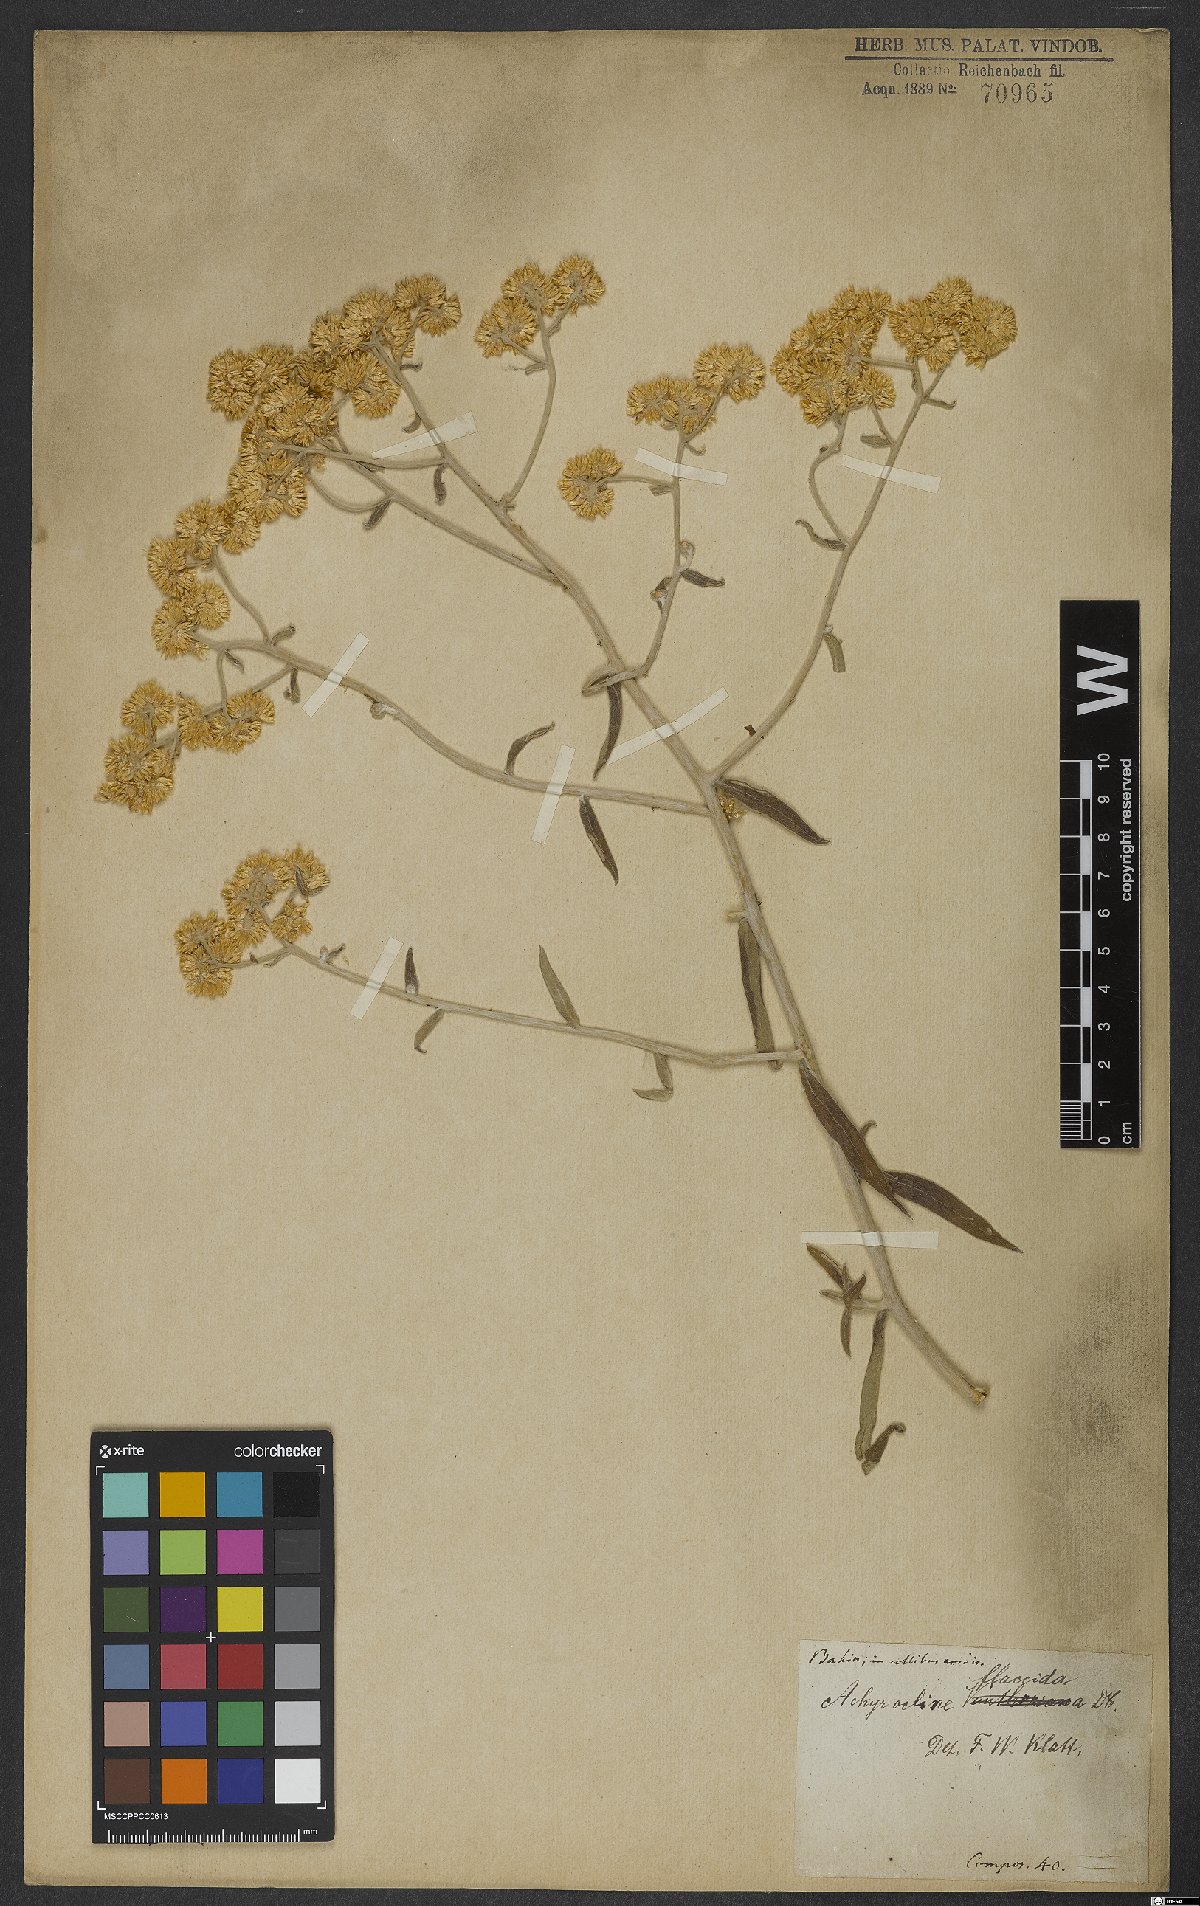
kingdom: Plantae
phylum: Tracheophyta
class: Magnoliopsida
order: Asterales
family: Asteraceae
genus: Achyrocline
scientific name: Achyrocline flaccida
